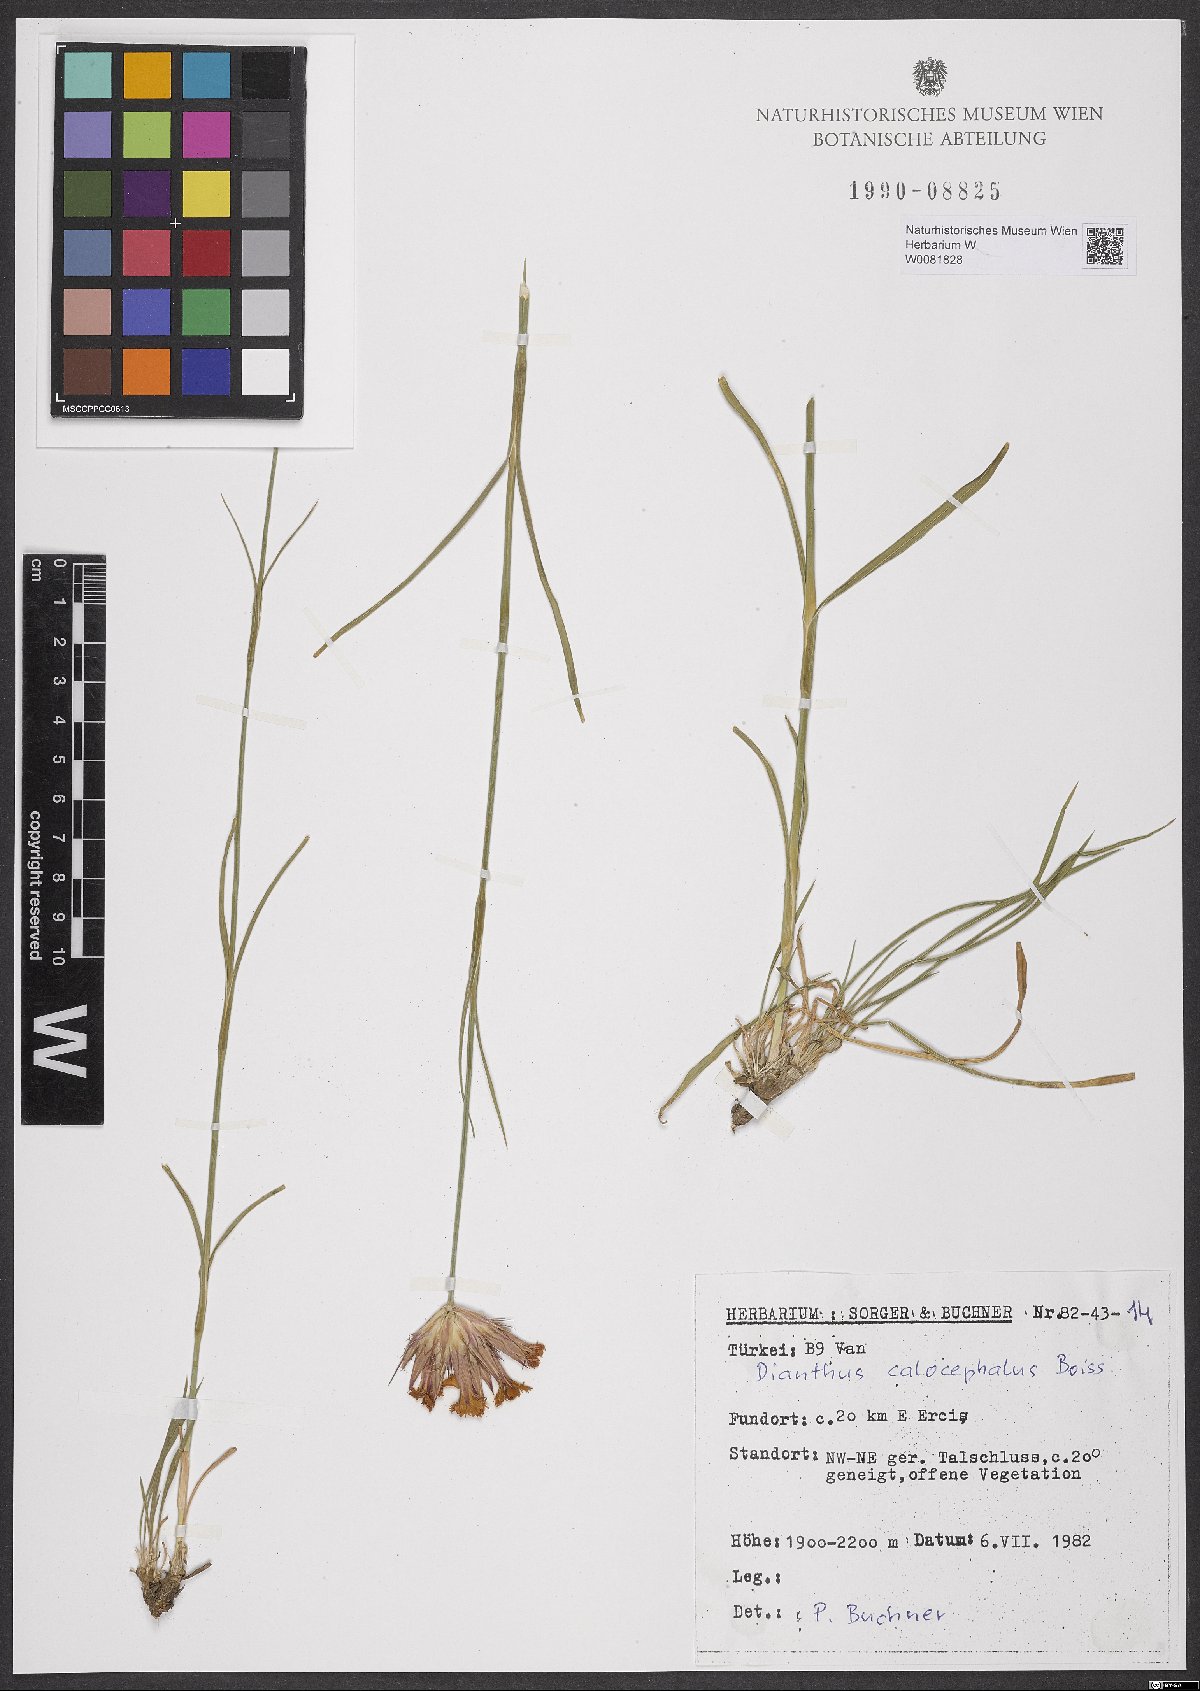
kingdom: Plantae
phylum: Tracheophyta
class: Magnoliopsida
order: Caryophyllales
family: Caryophyllaceae
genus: Dianthus
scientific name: Dianthus cruentus
